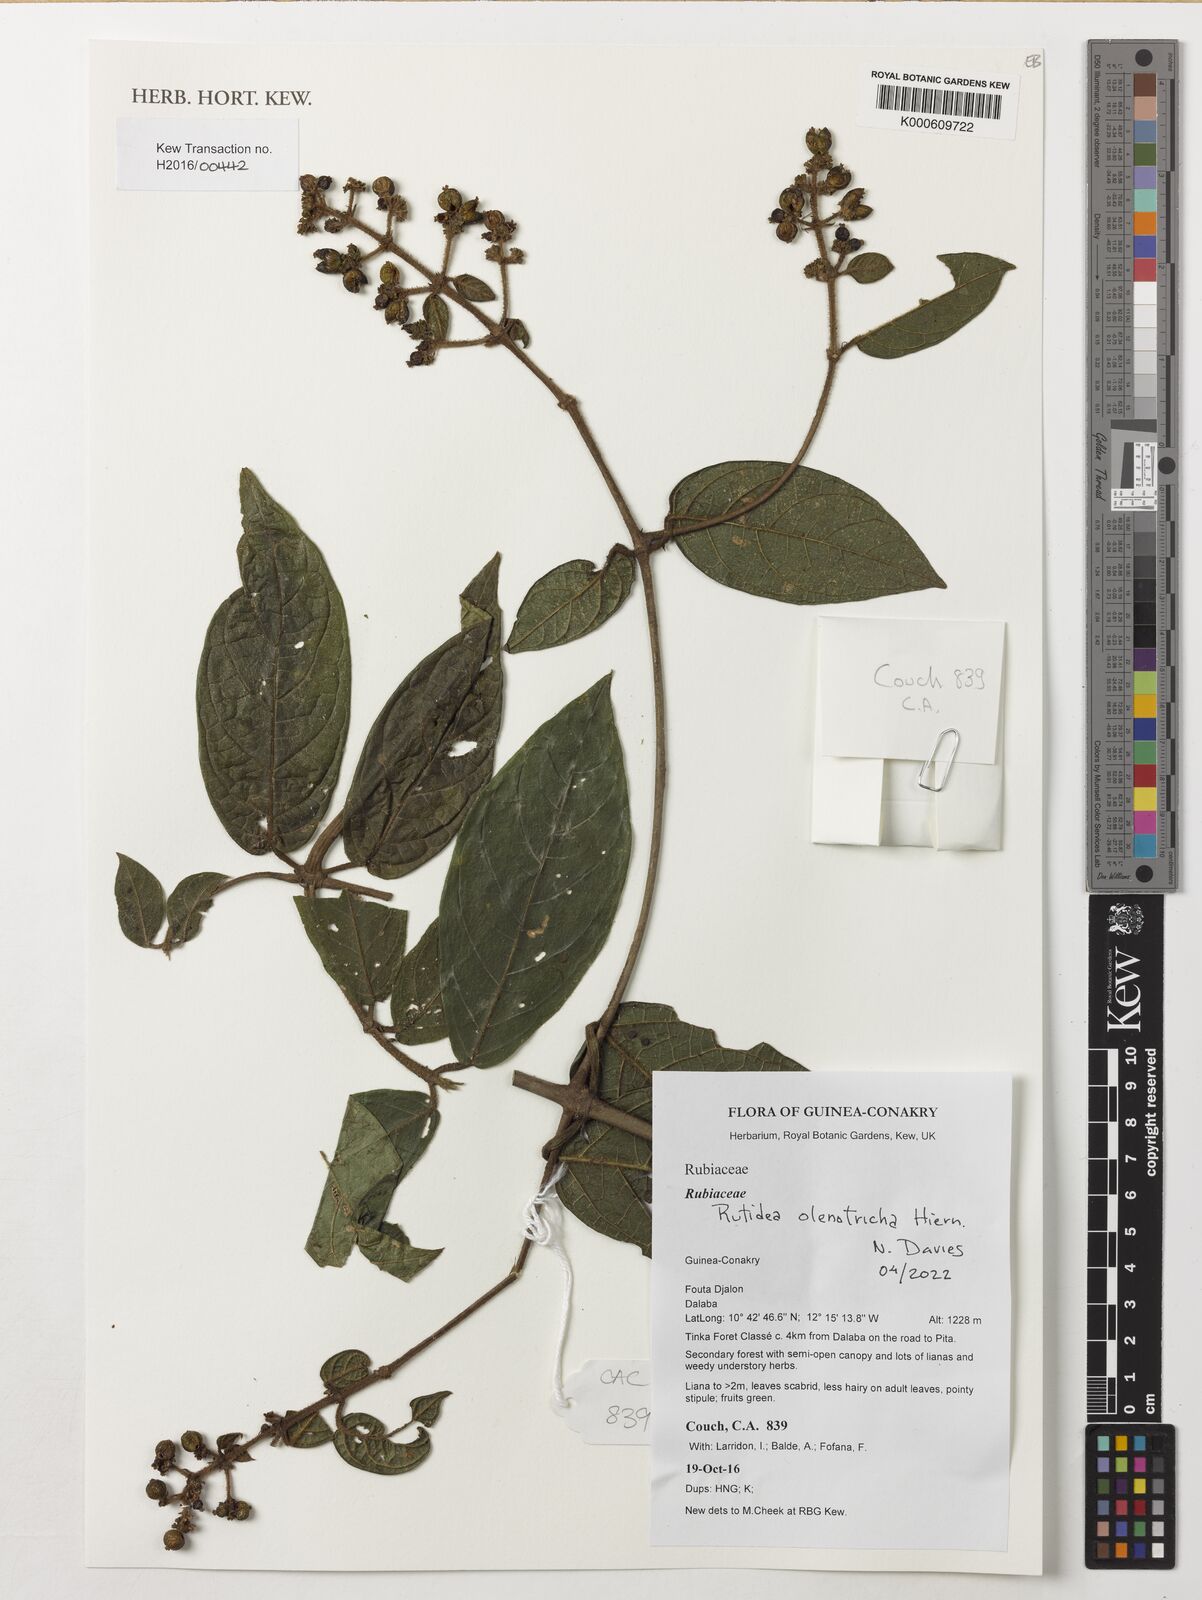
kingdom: Plantae
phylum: Tracheophyta
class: Magnoliopsida
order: Gentianales
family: Rubiaceae
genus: Rutidea
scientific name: Rutidea olenotricha
